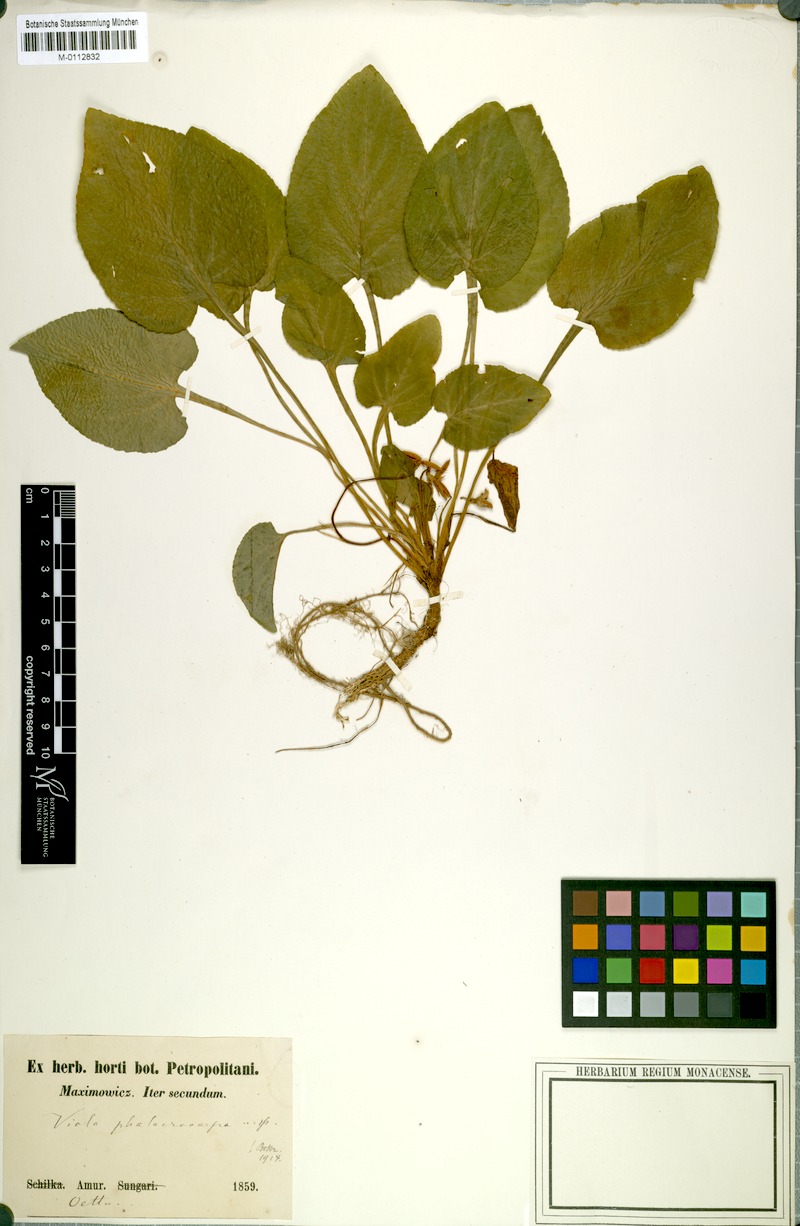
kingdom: Plantae
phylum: Tracheophyta
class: Magnoliopsida
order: Malpighiales
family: Violaceae
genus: Viola
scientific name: Viola phalacrocarpa
